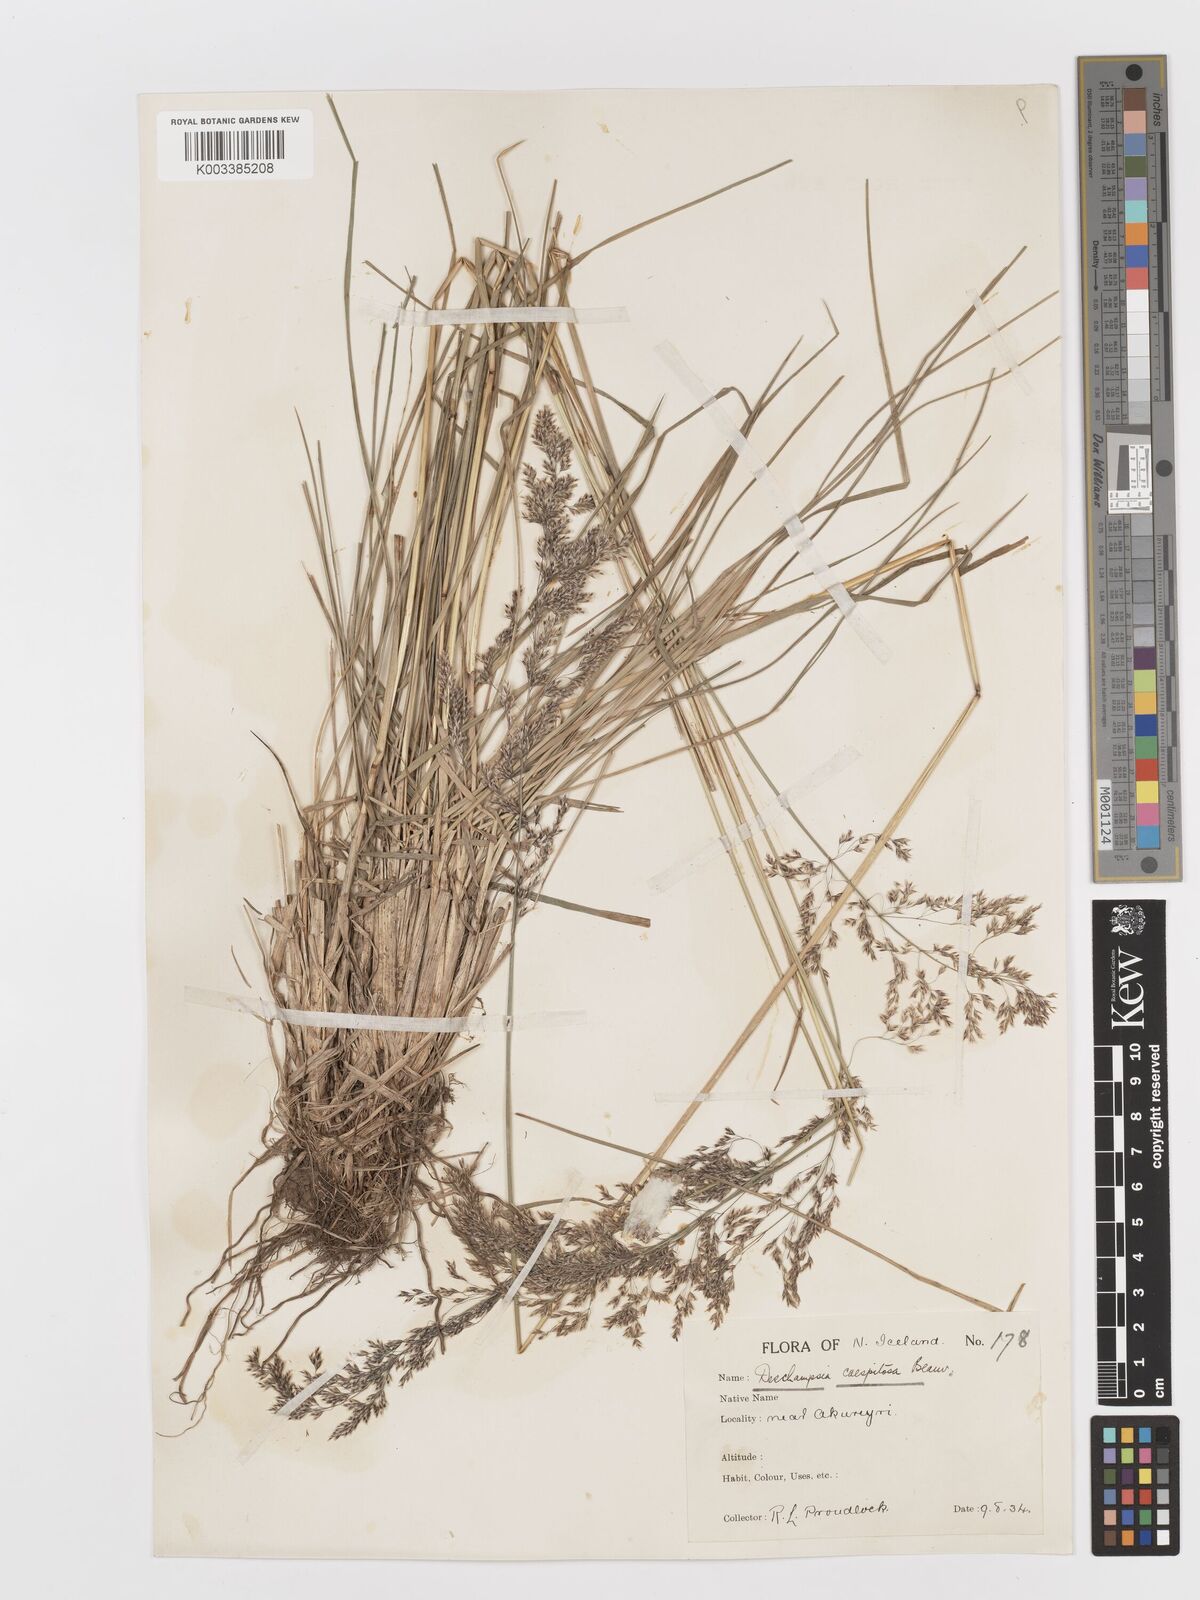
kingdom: Plantae
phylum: Tracheophyta
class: Liliopsida
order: Poales
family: Poaceae
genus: Deschampsia
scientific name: Deschampsia cespitosa
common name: Tufted hair-grass
